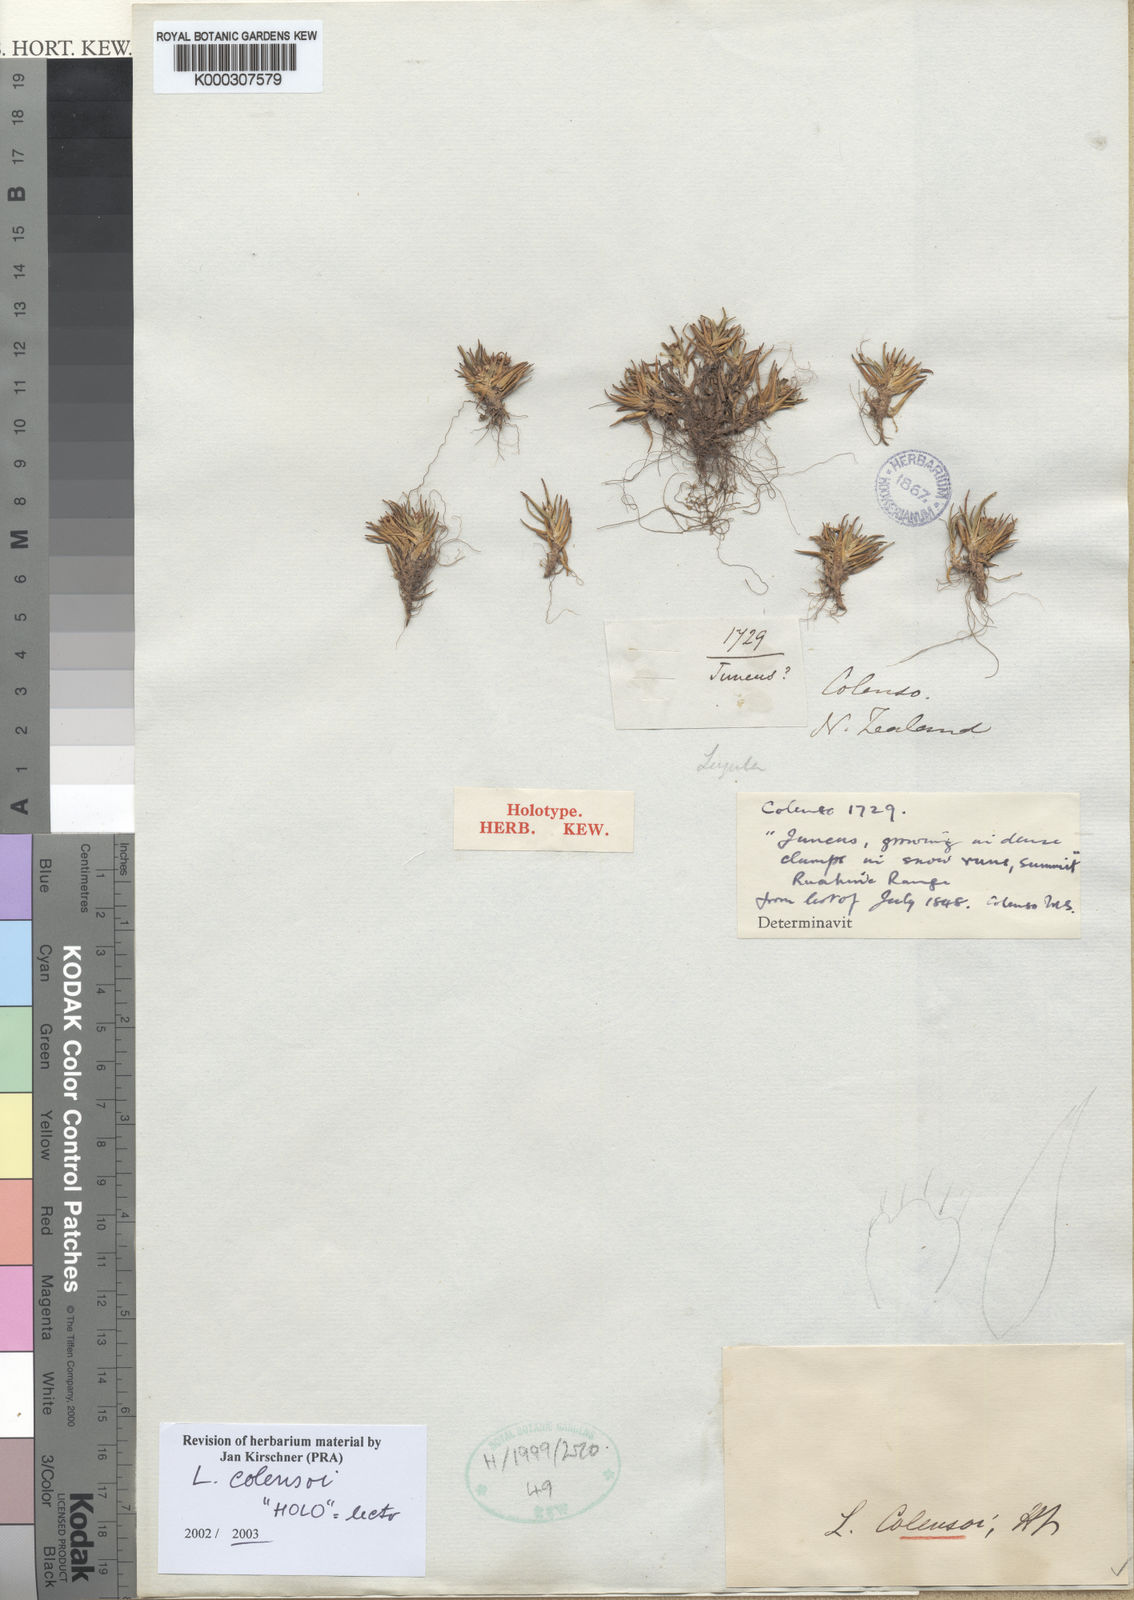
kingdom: Plantae
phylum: Tracheophyta
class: Liliopsida
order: Poales
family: Juncaceae
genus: Luzula
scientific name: Luzula colensoi
